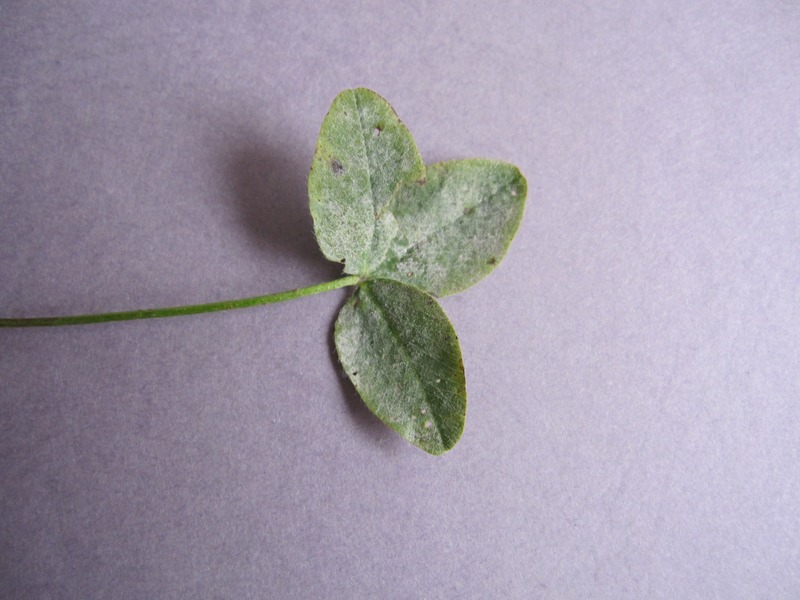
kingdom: Fungi
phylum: Ascomycota
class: Leotiomycetes
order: Helotiales
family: Erysiphaceae
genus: Erysiphe
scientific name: Erysiphe pisi
